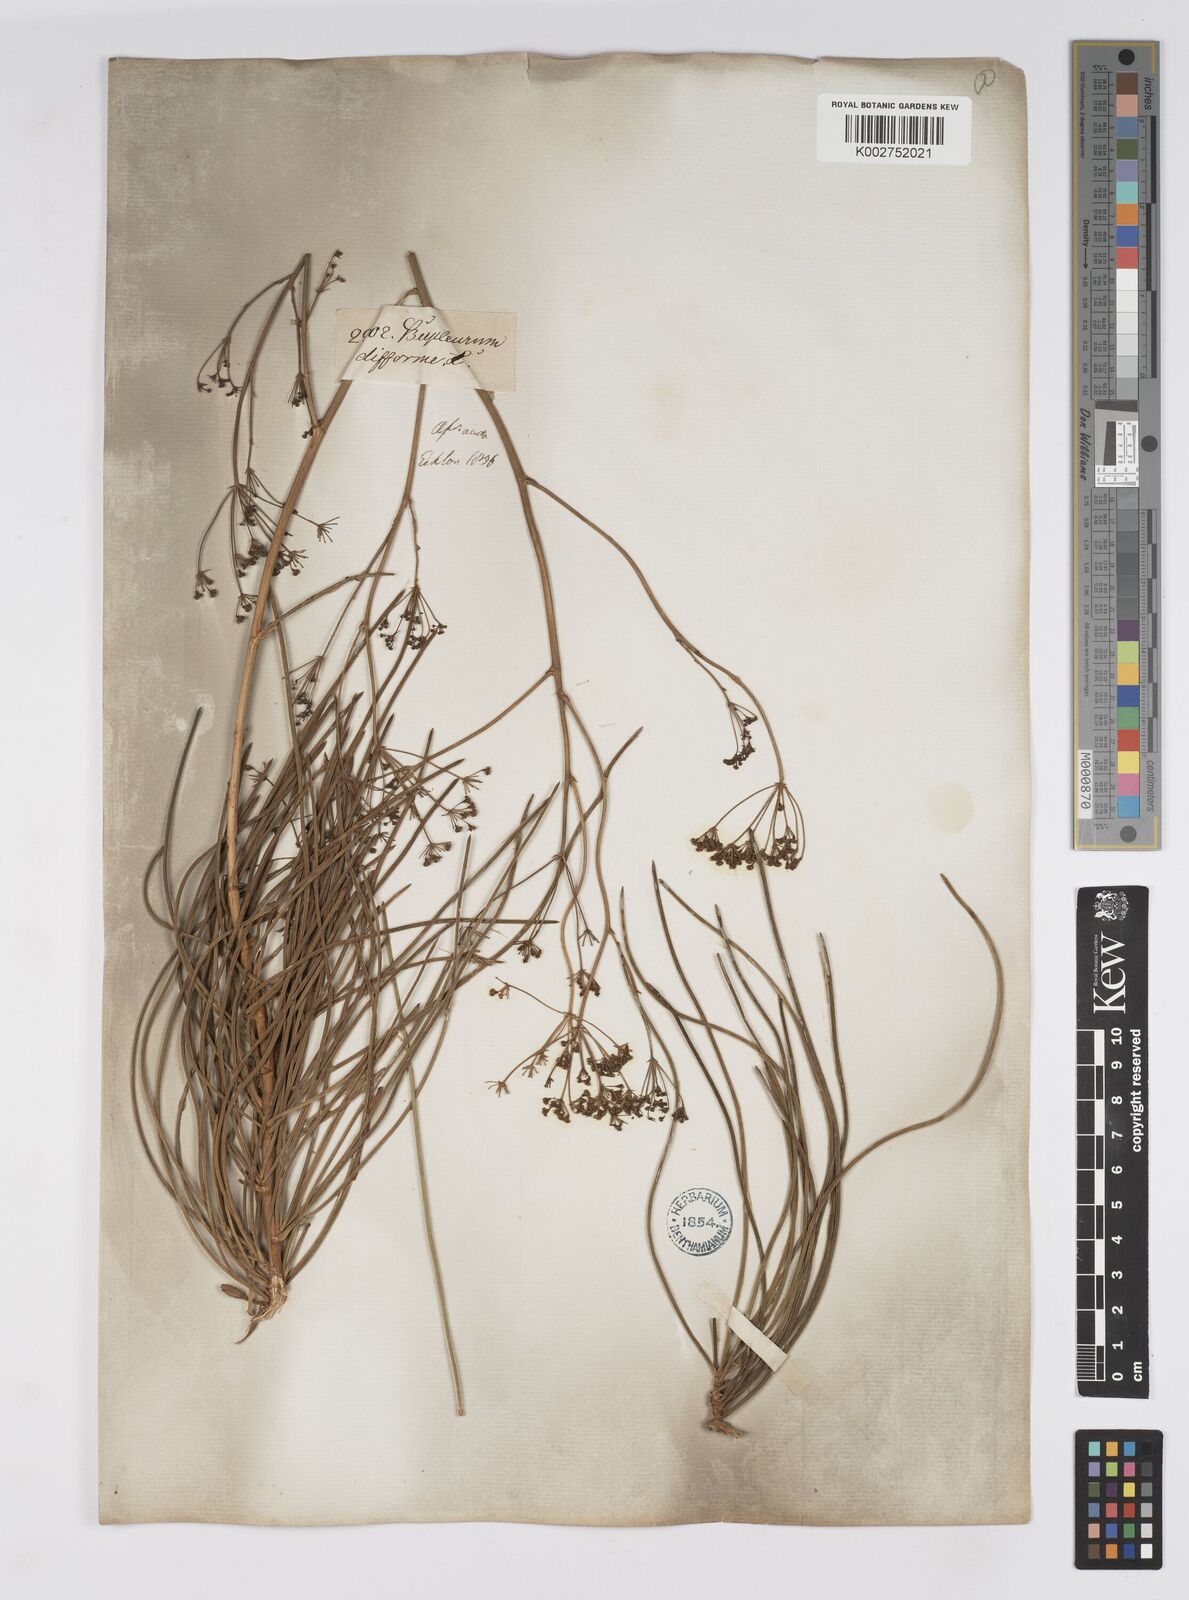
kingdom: Plantae
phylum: Tracheophyta
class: Magnoliopsida
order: Apiales
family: Apiaceae
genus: Anginon
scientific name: Anginon difforme
